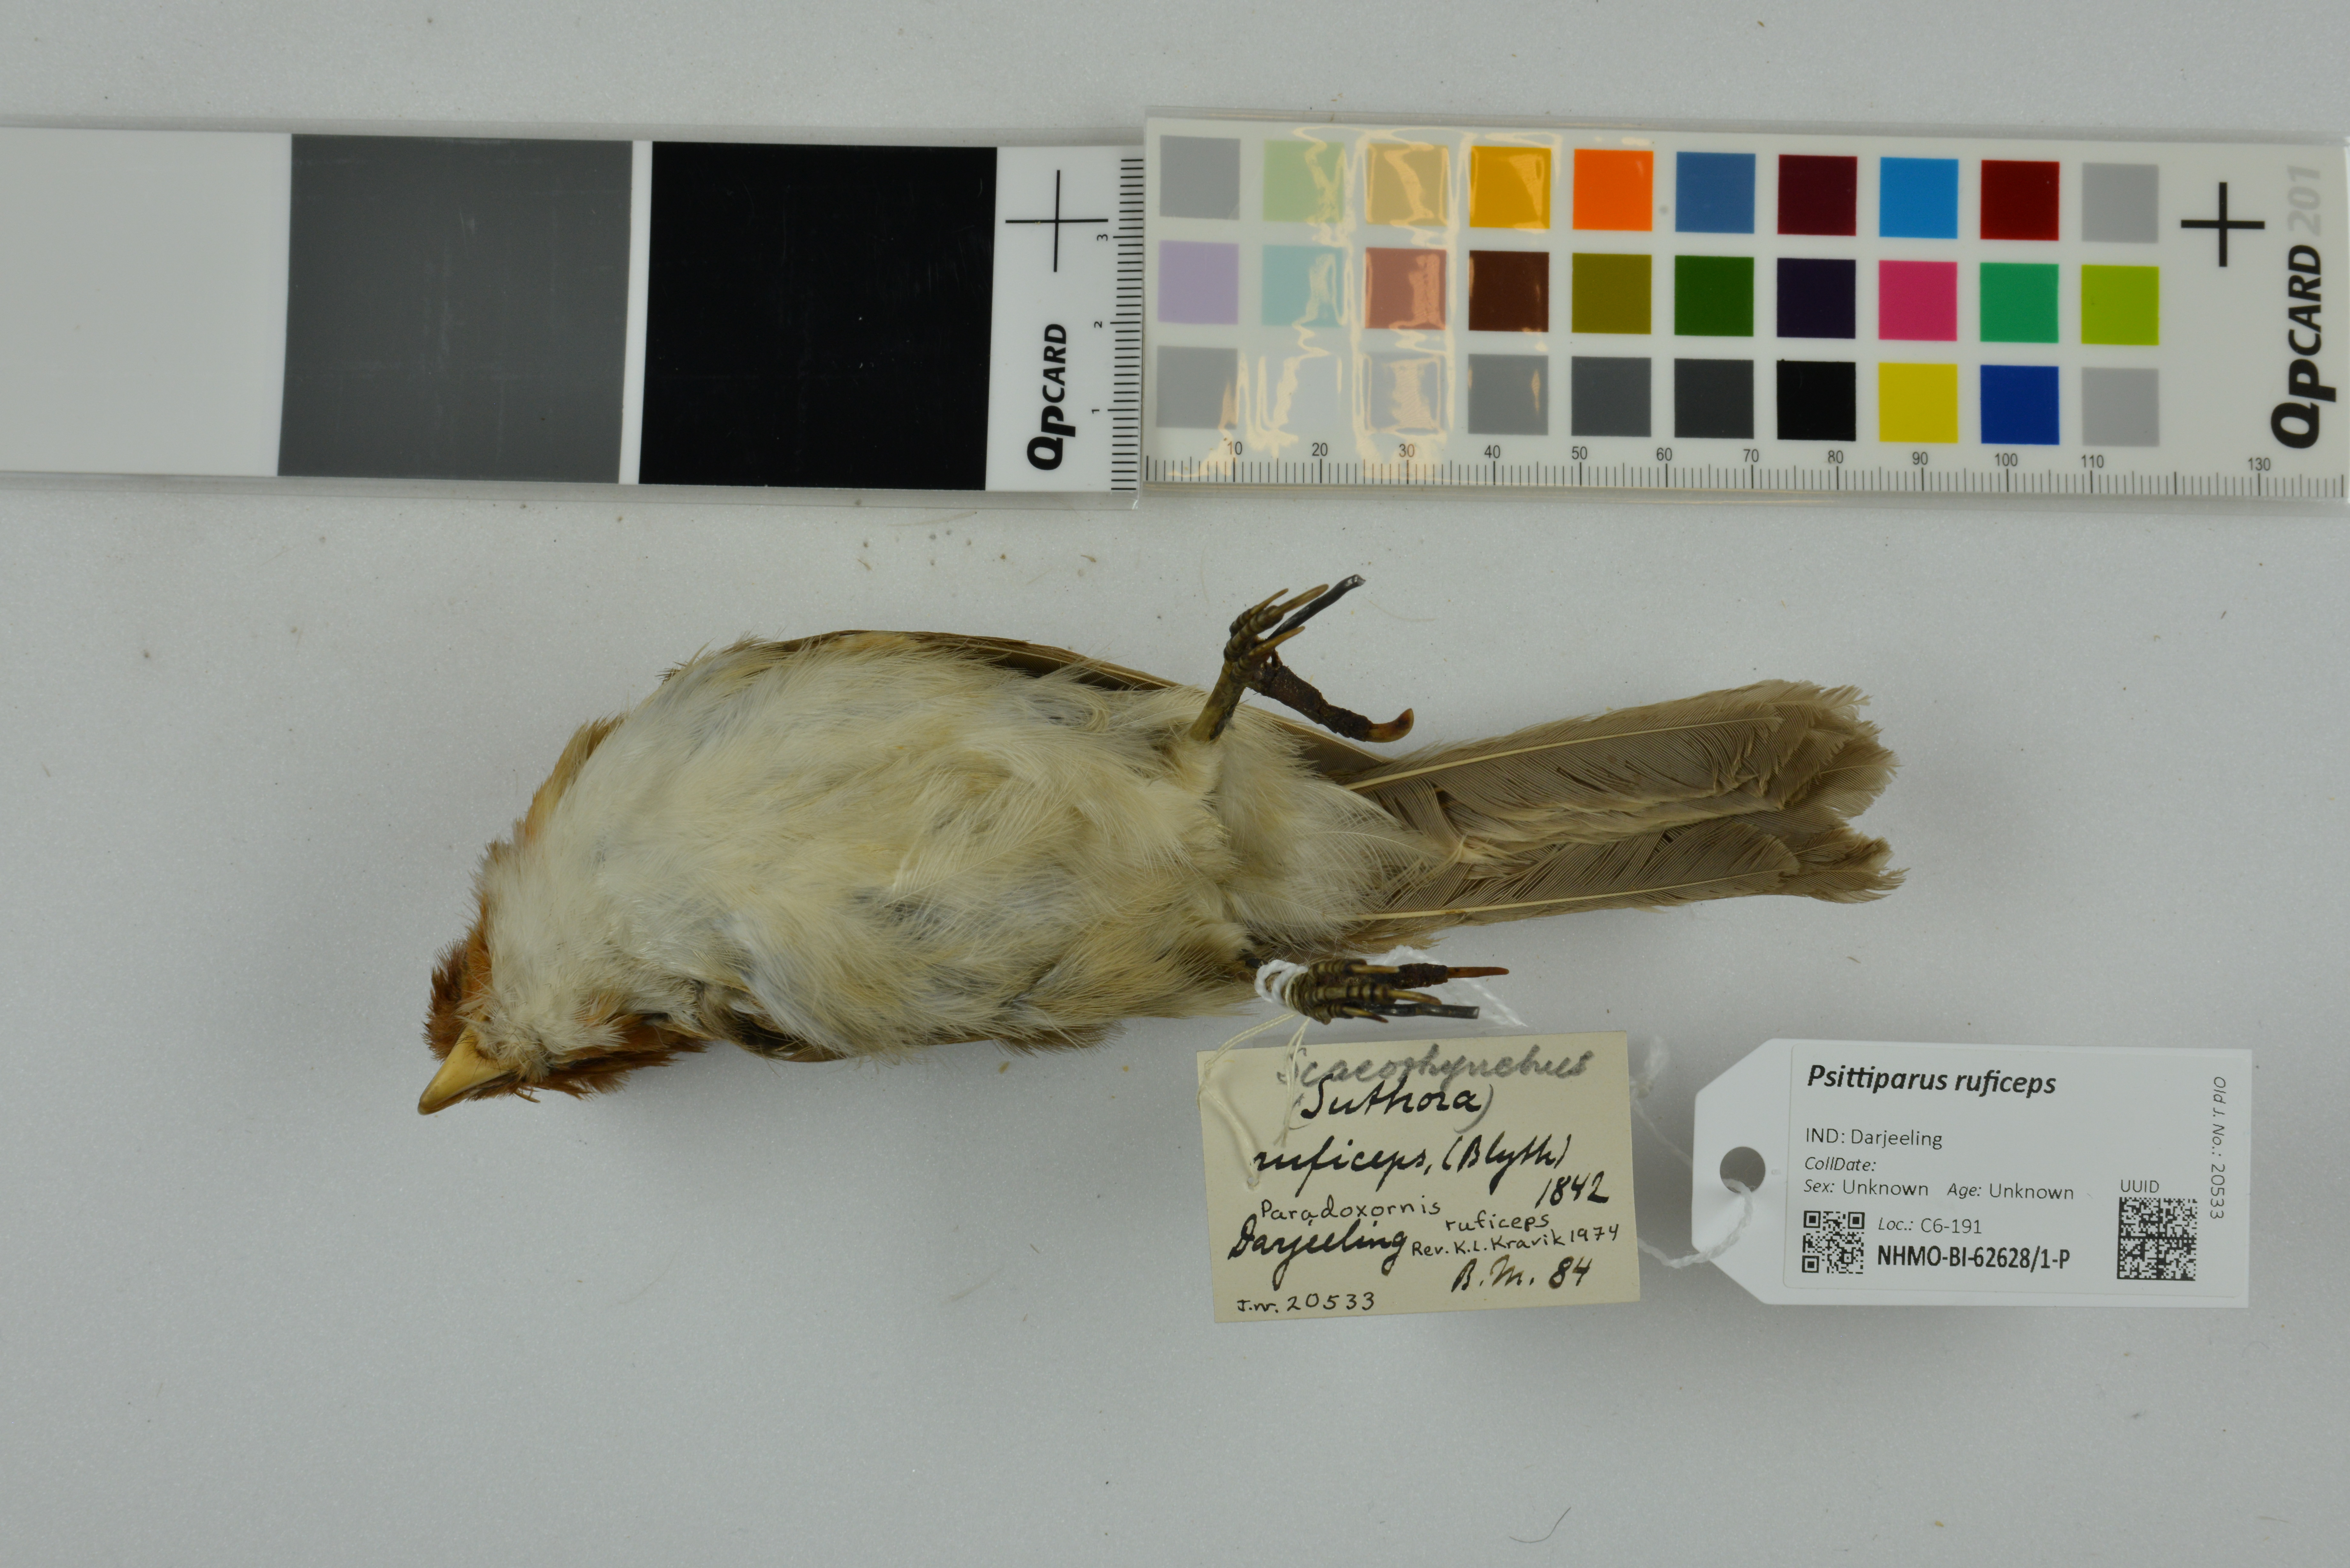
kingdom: Animalia
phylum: Chordata
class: Aves
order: Passeriformes
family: Sylviidae
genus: Psittiparus
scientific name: Psittiparus ruficeps
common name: White-breasted parrotbill
